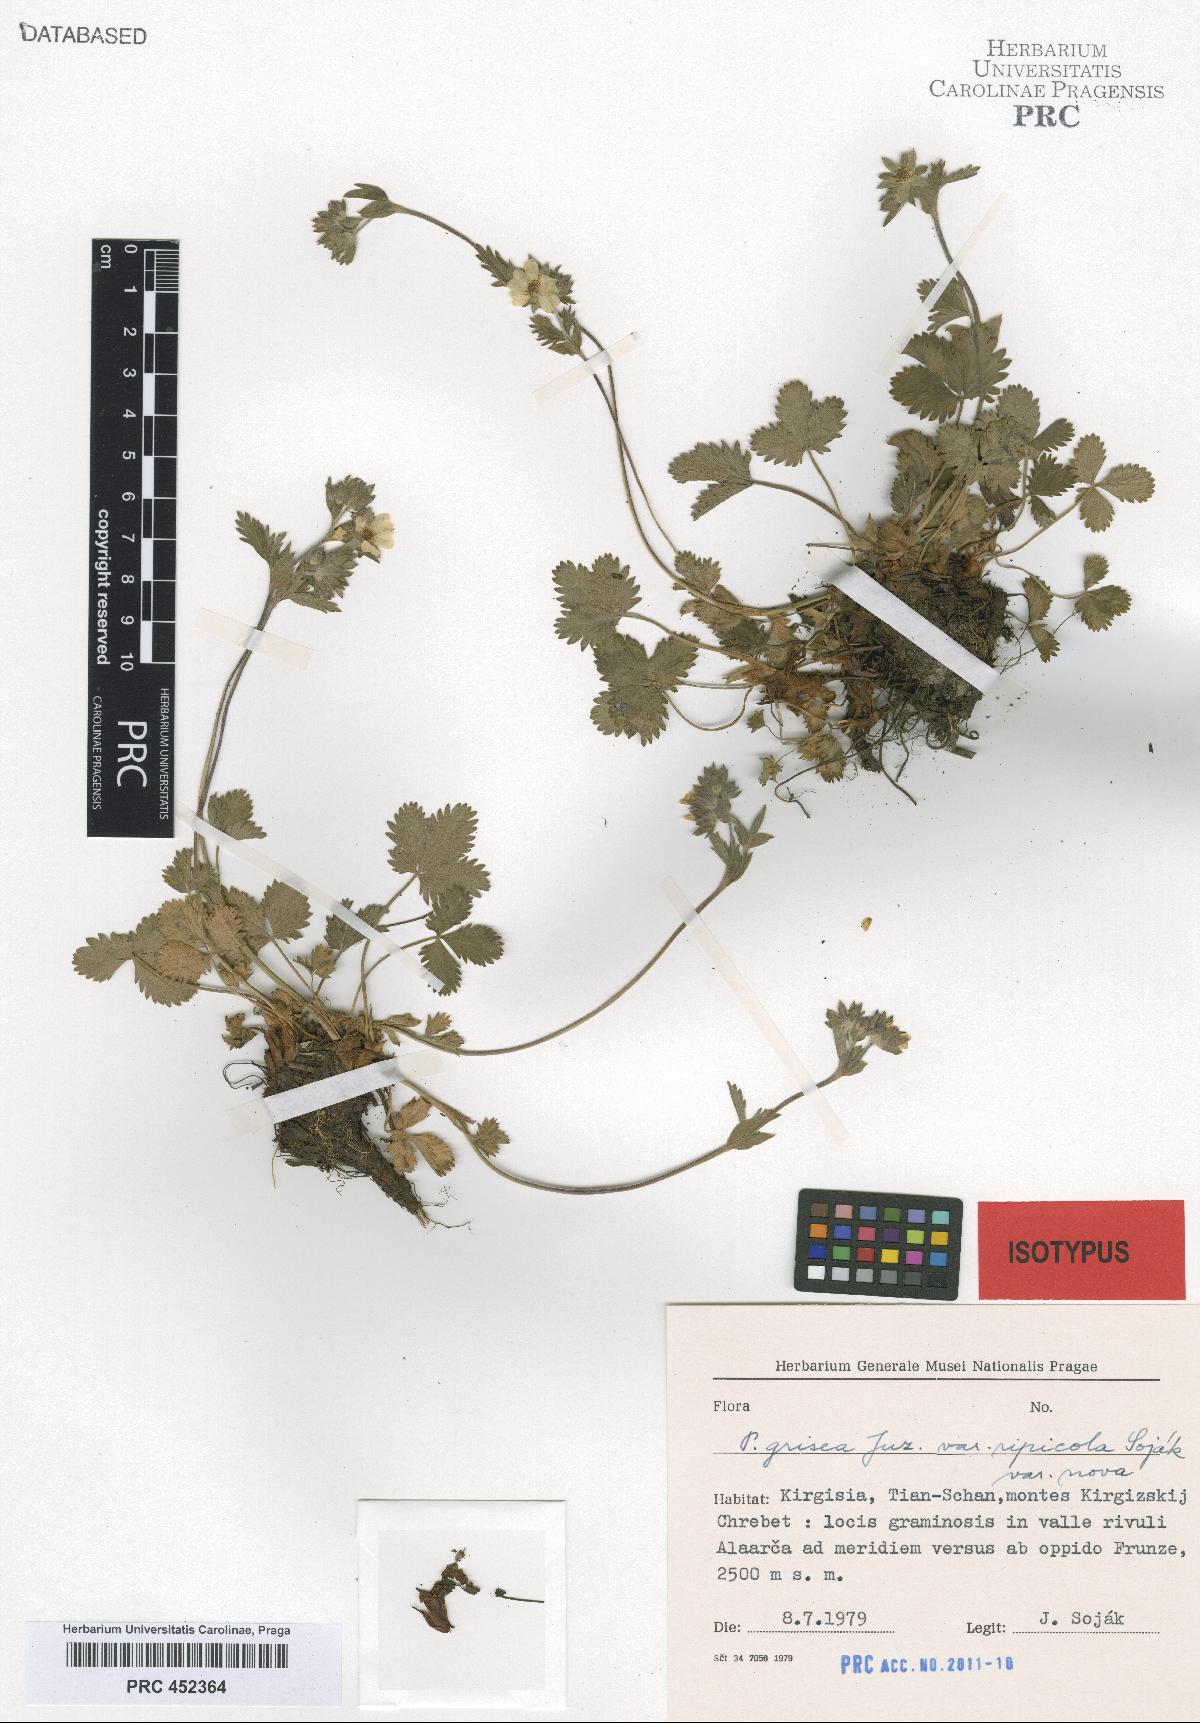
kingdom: Plantae
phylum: Tracheophyta
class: Magnoliopsida
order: Rosales
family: Rosaceae
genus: Potentilla
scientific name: Potentilla grisea
